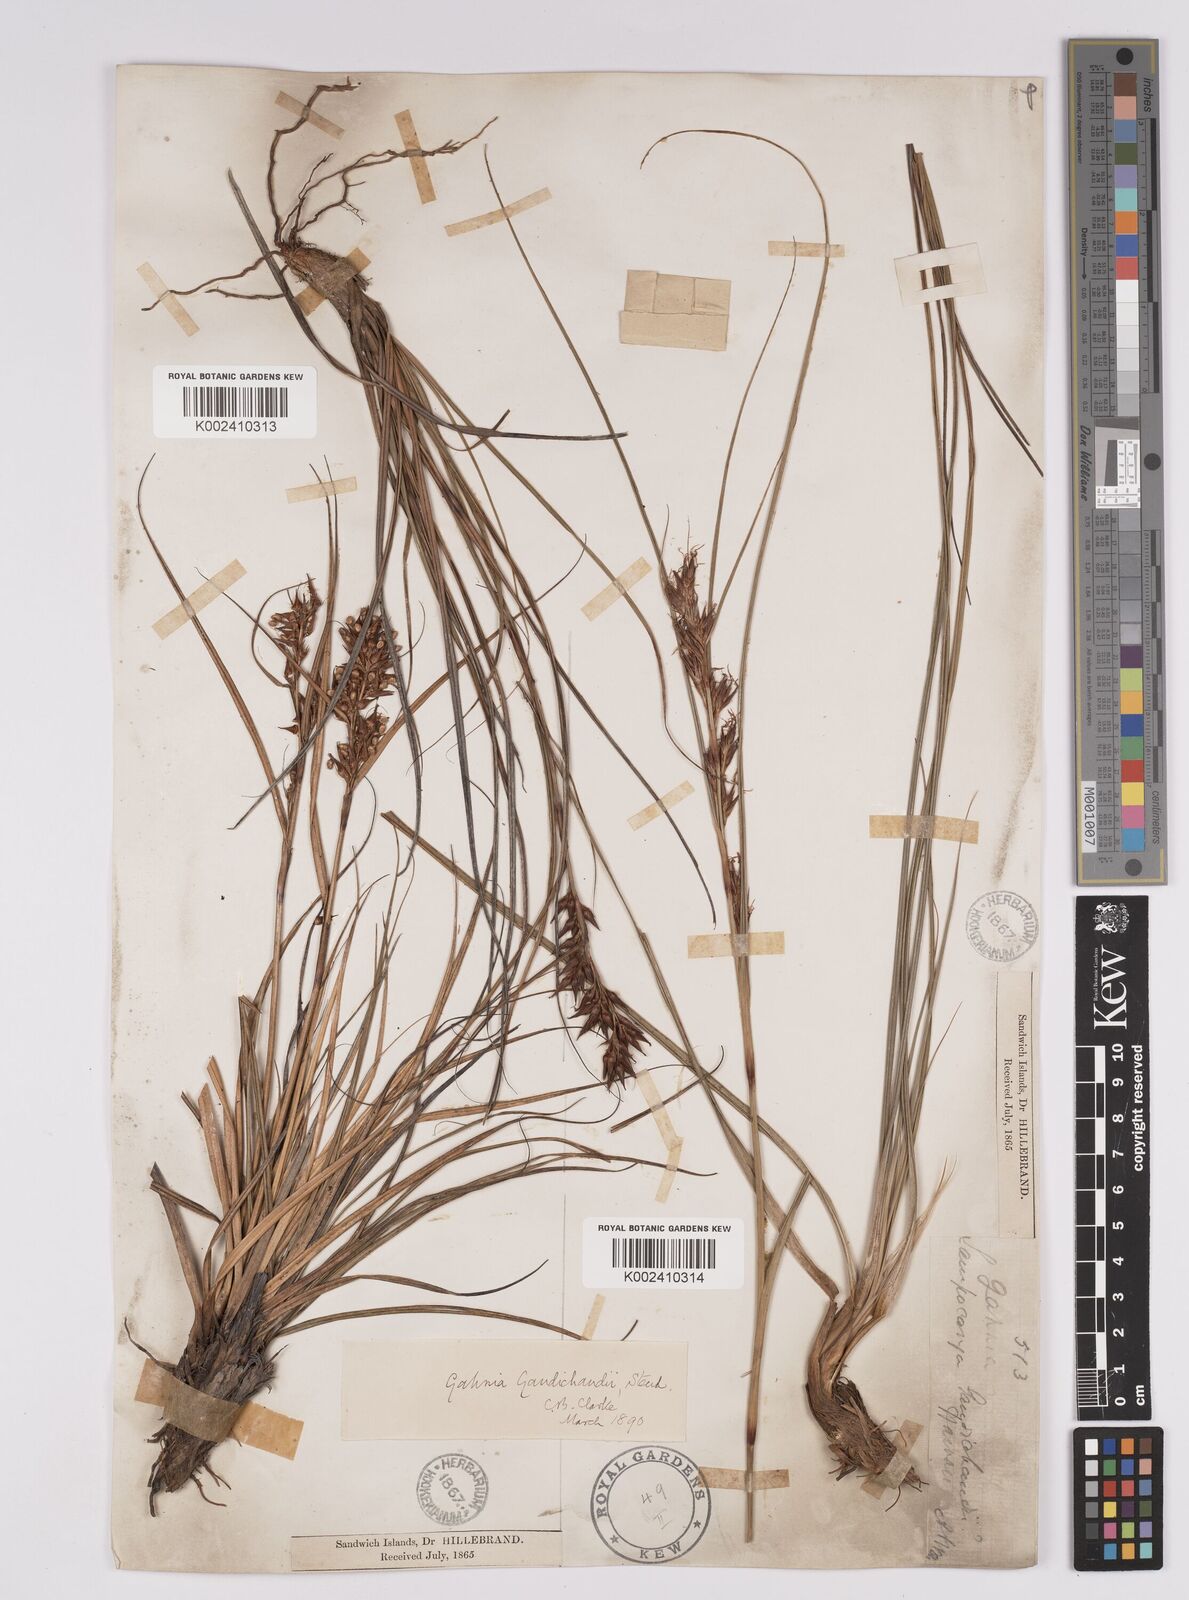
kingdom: Plantae
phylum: Tracheophyta
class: Liliopsida
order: Poales
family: Cyperaceae
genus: Morelotia
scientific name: Morelotia gahniiformis
